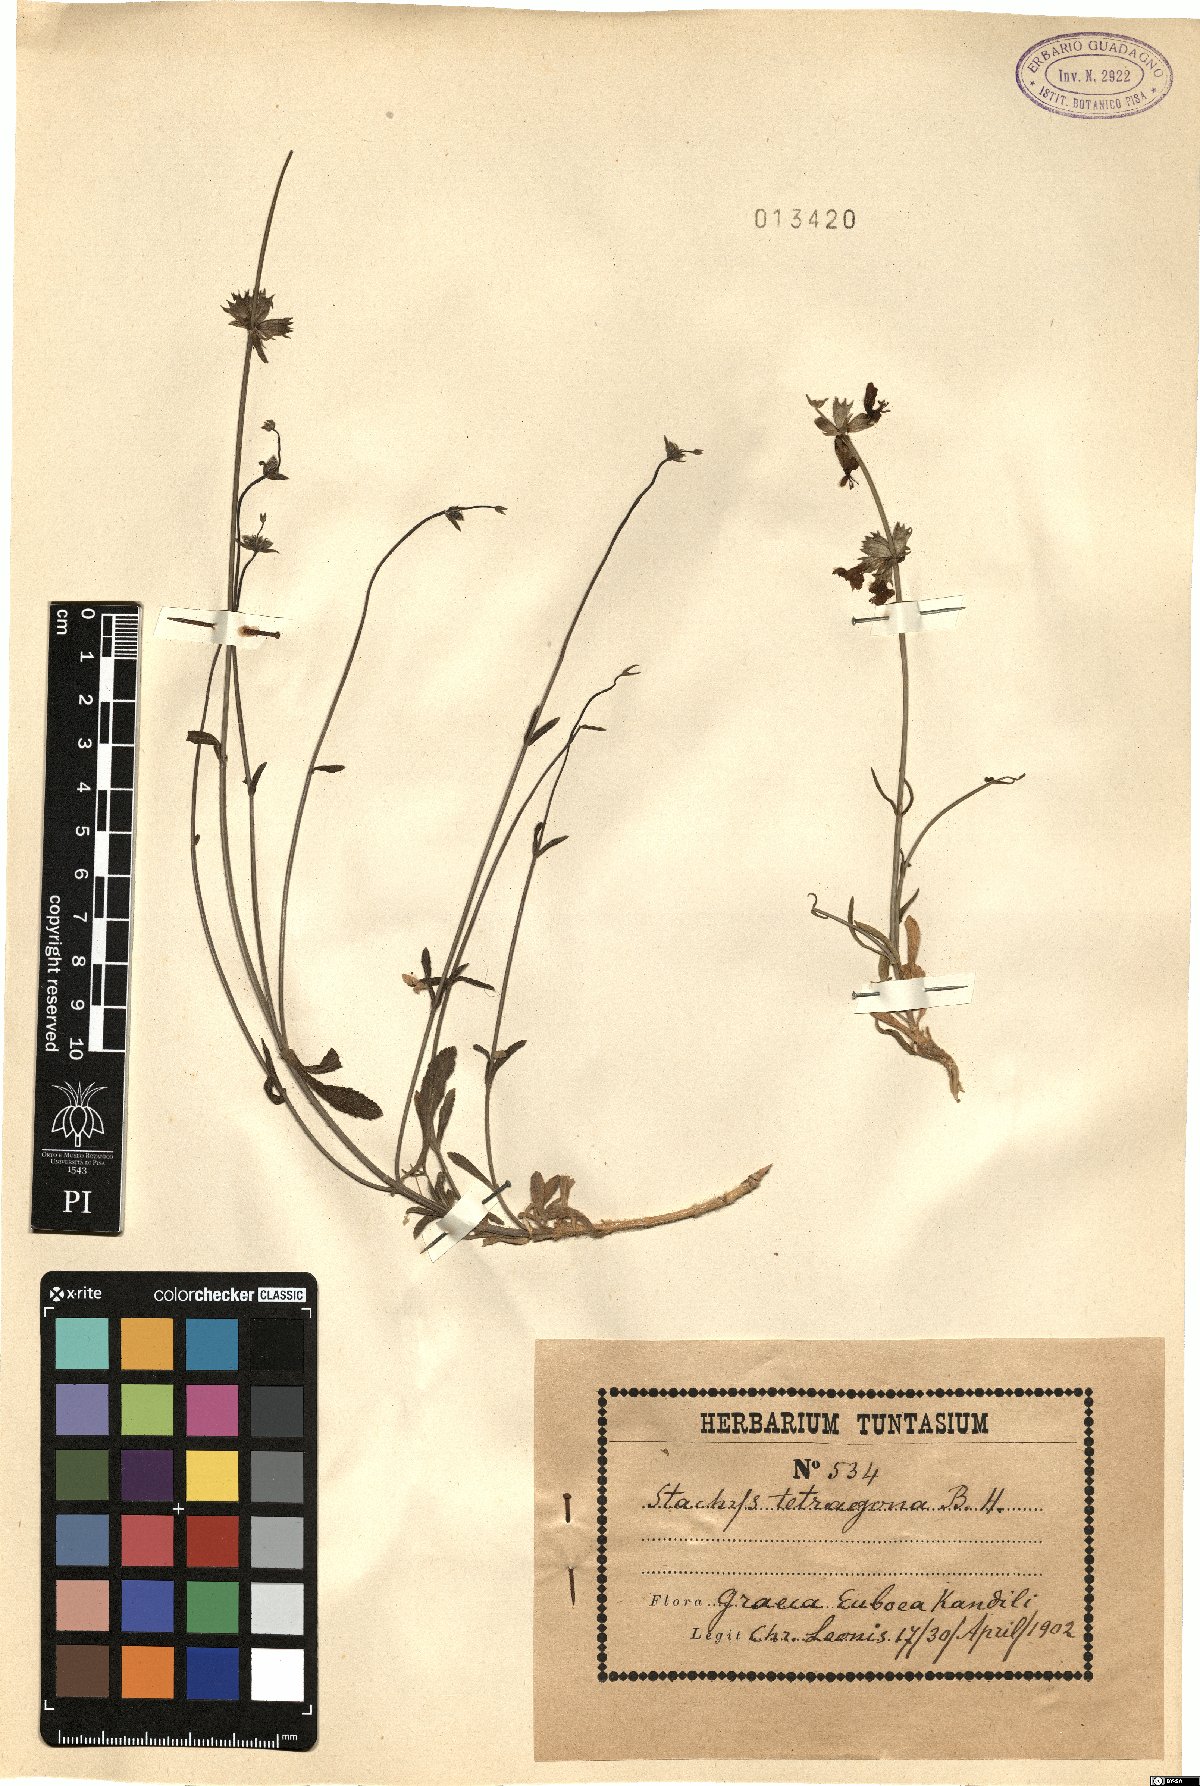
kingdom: Plantae
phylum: Tracheophyta
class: Magnoliopsida
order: Lamiales
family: Lamiaceae
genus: Stachys
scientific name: Stachys tetragona
